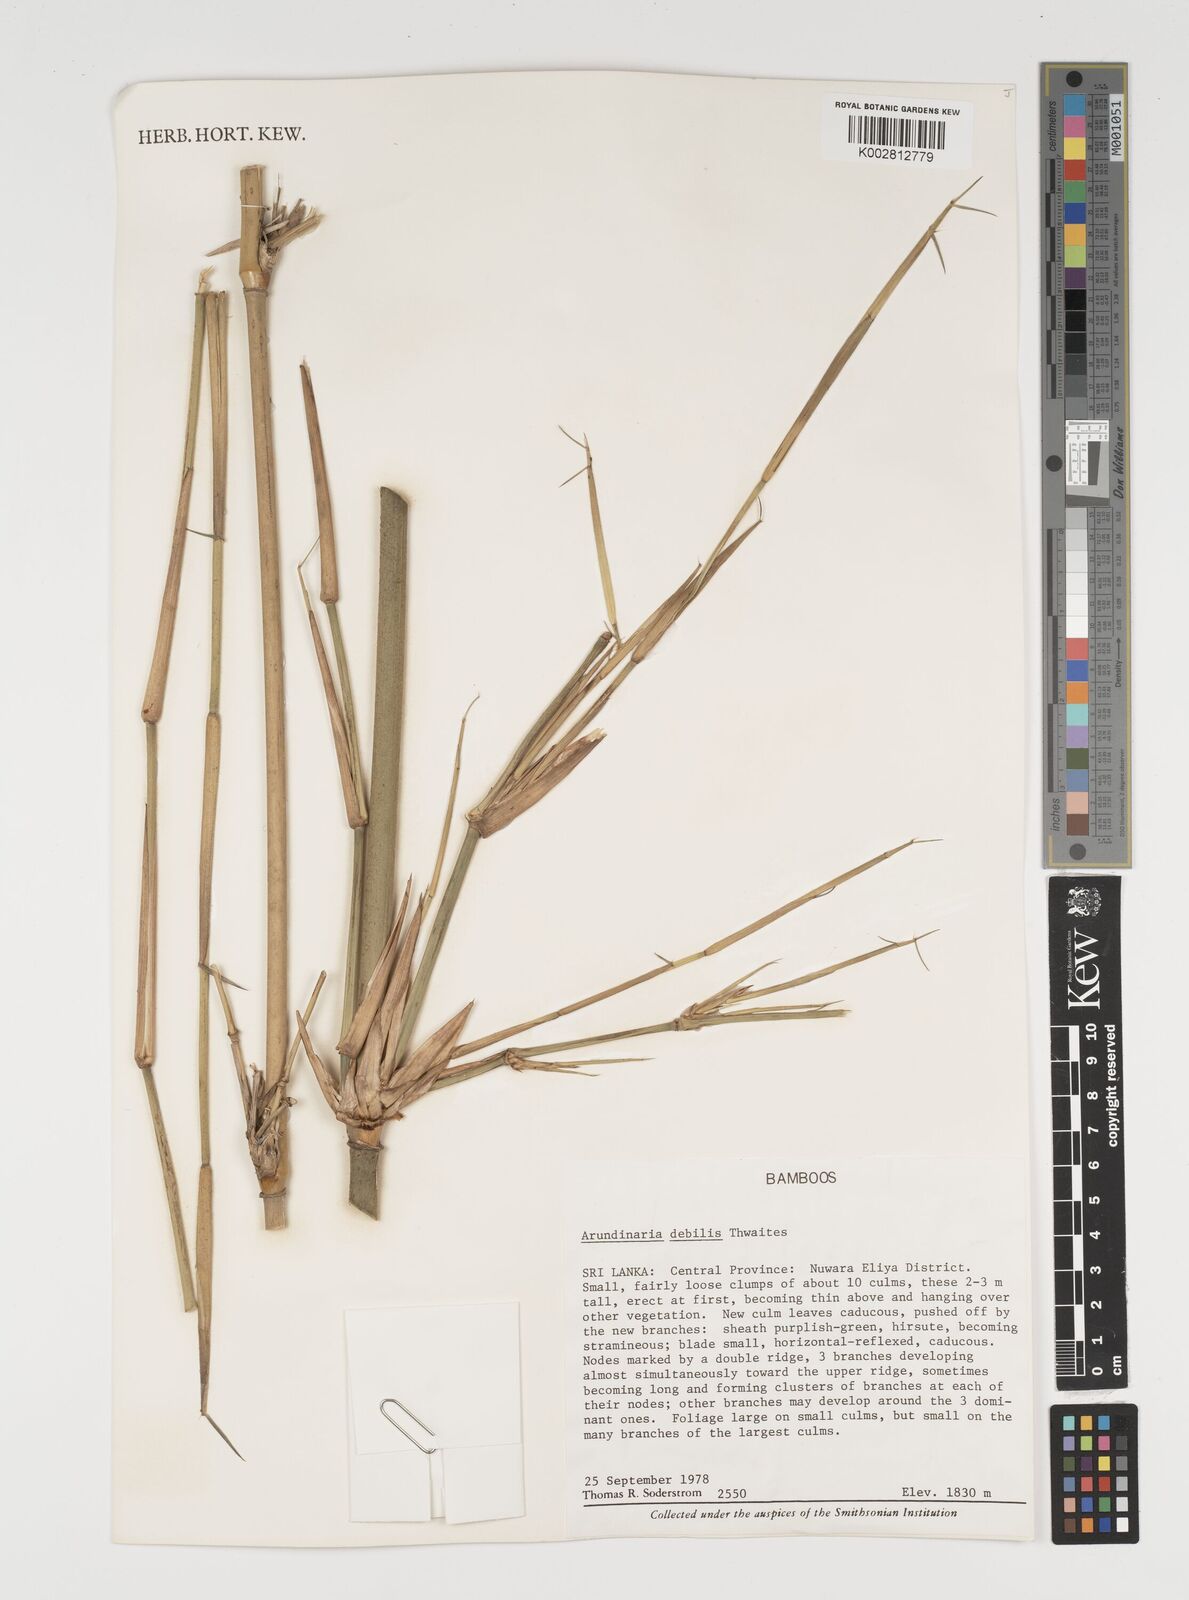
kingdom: Plantae
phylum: Tracheophyta
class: Liliopsida
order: Poales
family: Poaceae
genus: Kuruna
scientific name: Kuruna debilis
